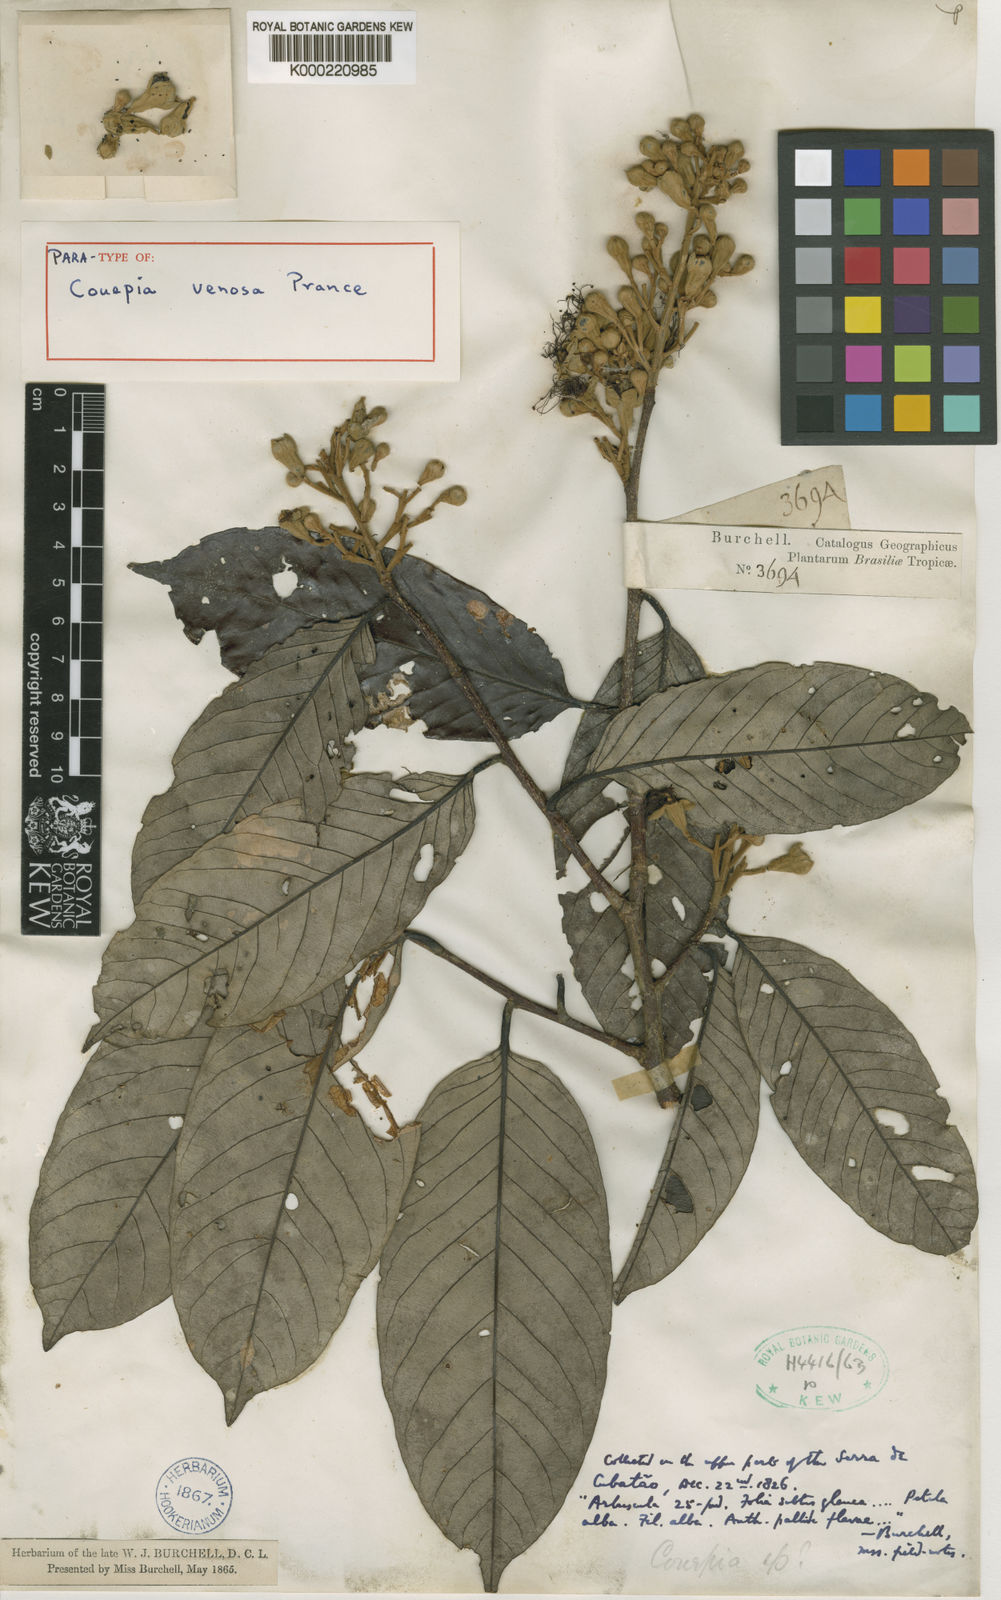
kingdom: Plantae
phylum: Tracheophyta
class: Magnoliopsida
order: Malpighiales
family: Chrysobalanaceae
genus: Couepia
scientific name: Couepia venosa
